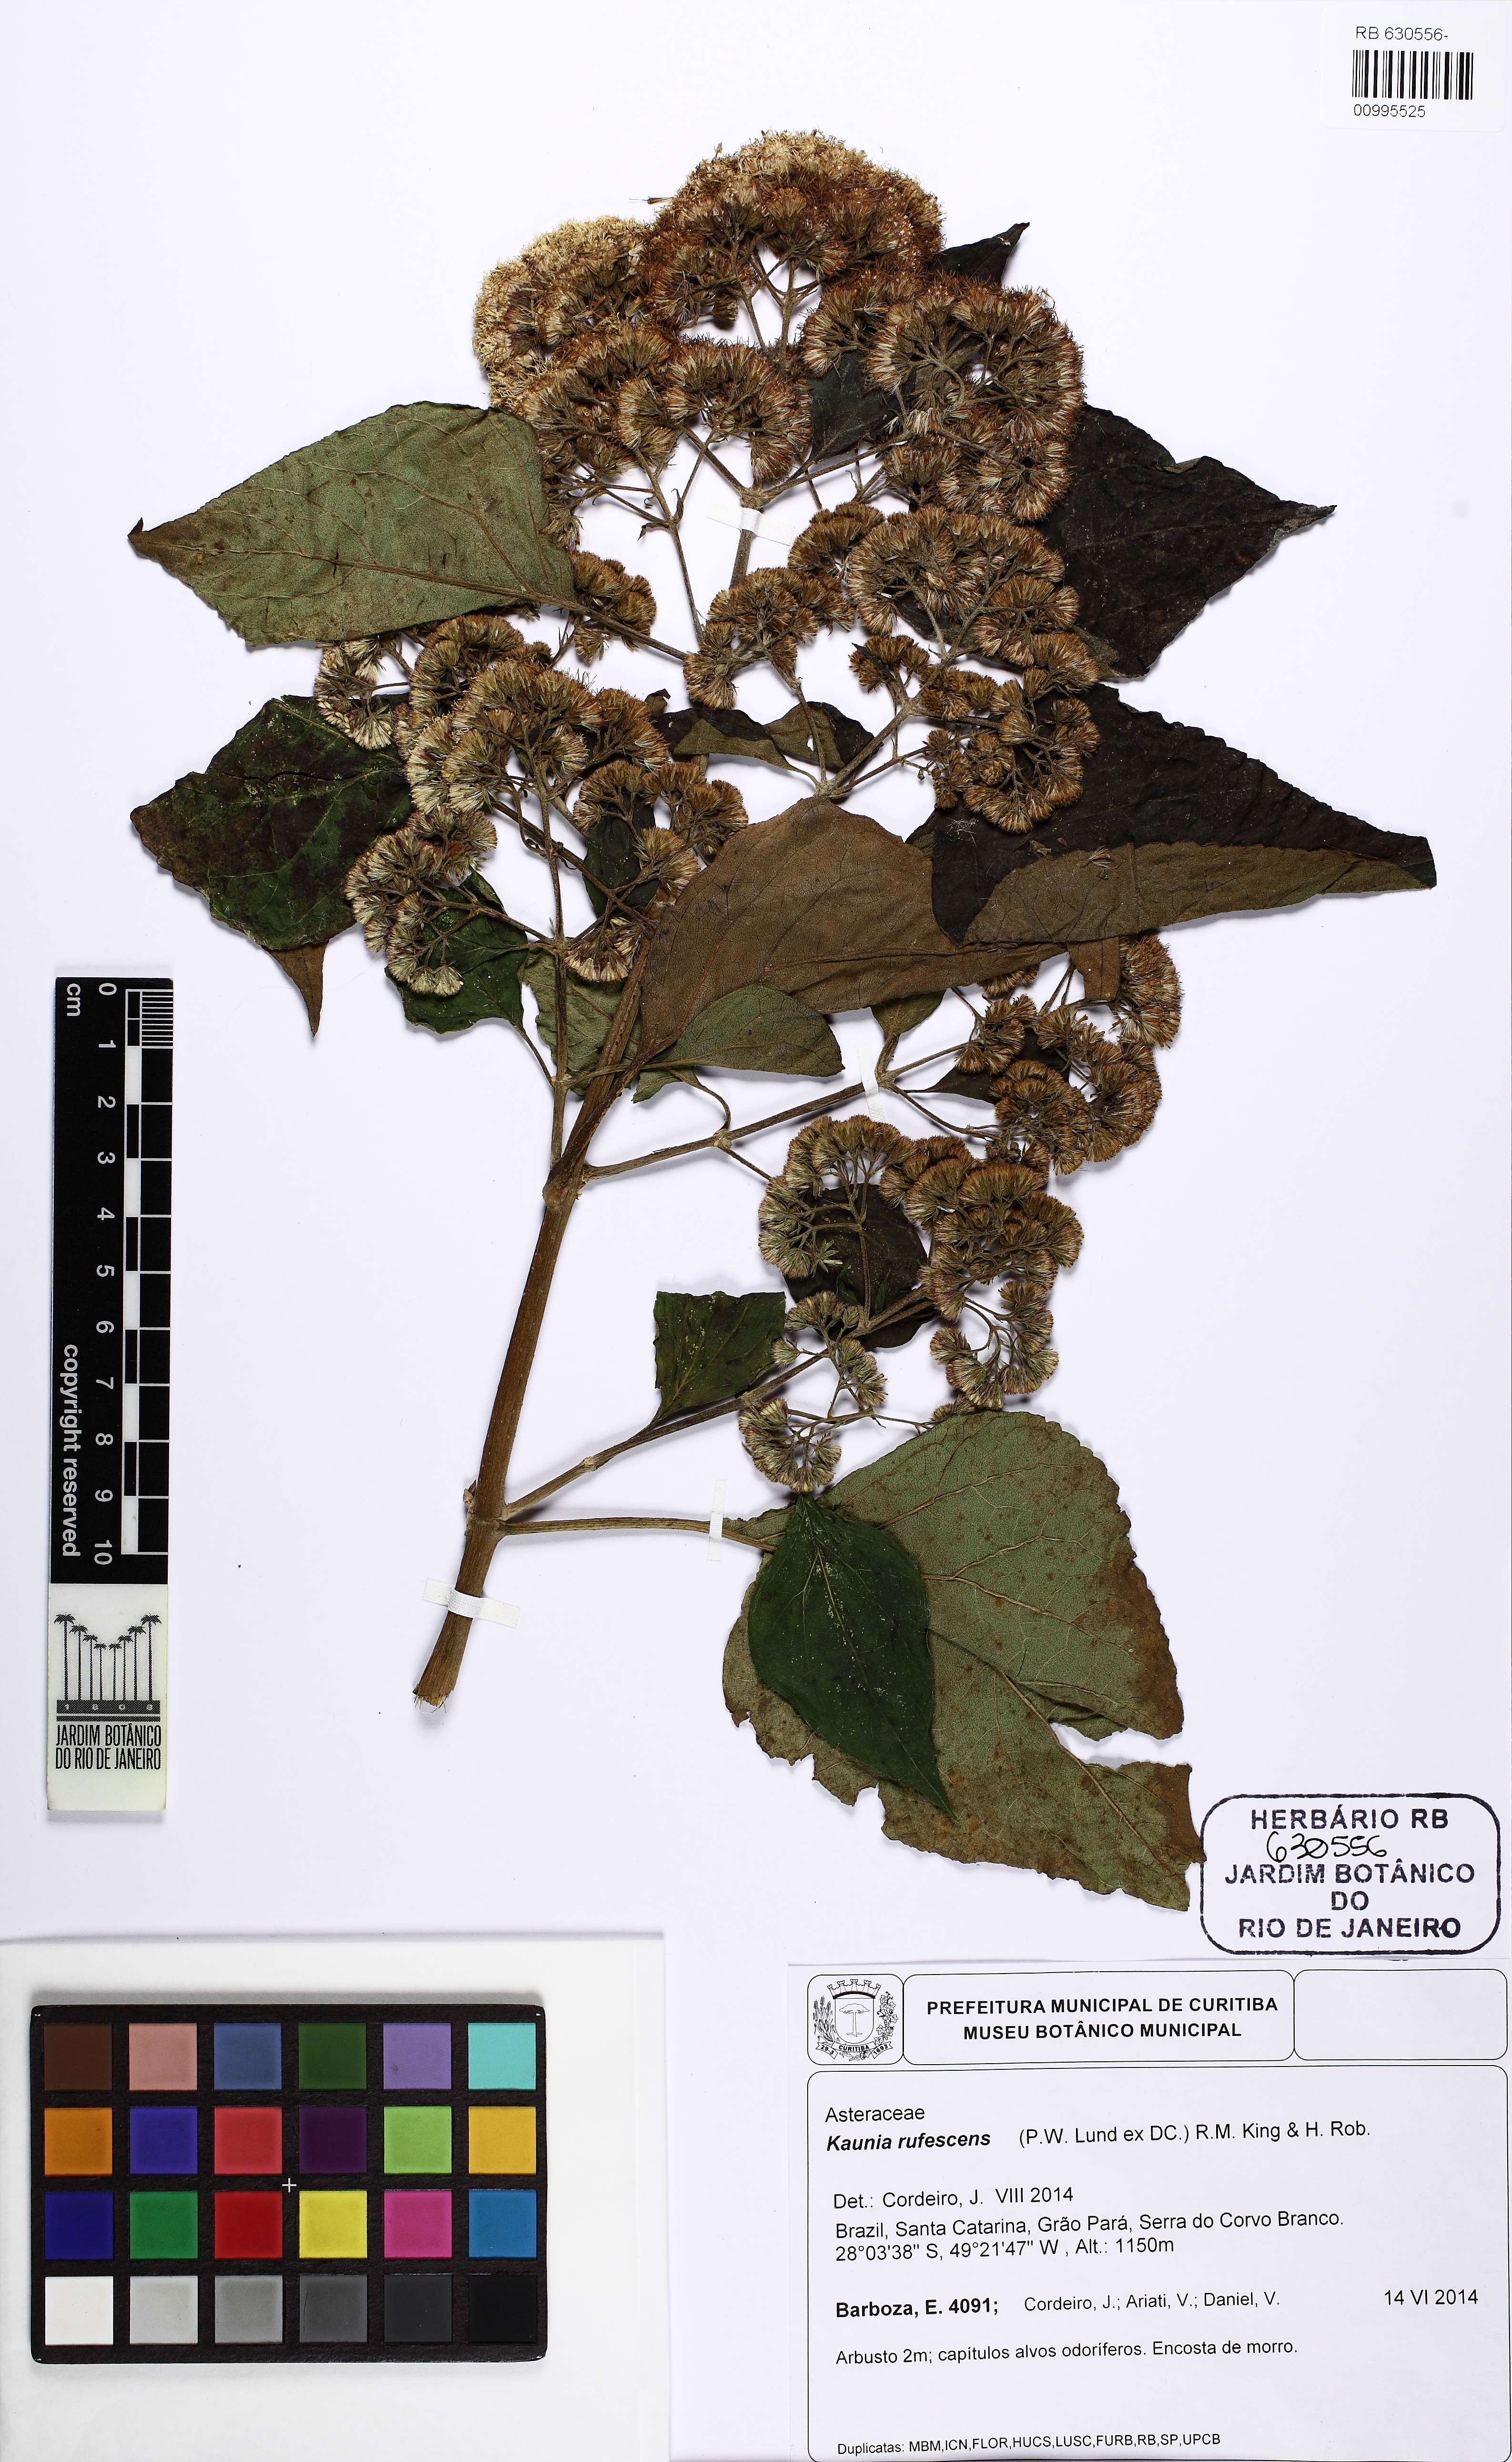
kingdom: Plantae
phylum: Tracheophyta
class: Magnoliopsida
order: Asterales
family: Asteraceae
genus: Kaunia
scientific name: Kaunia rufescens
